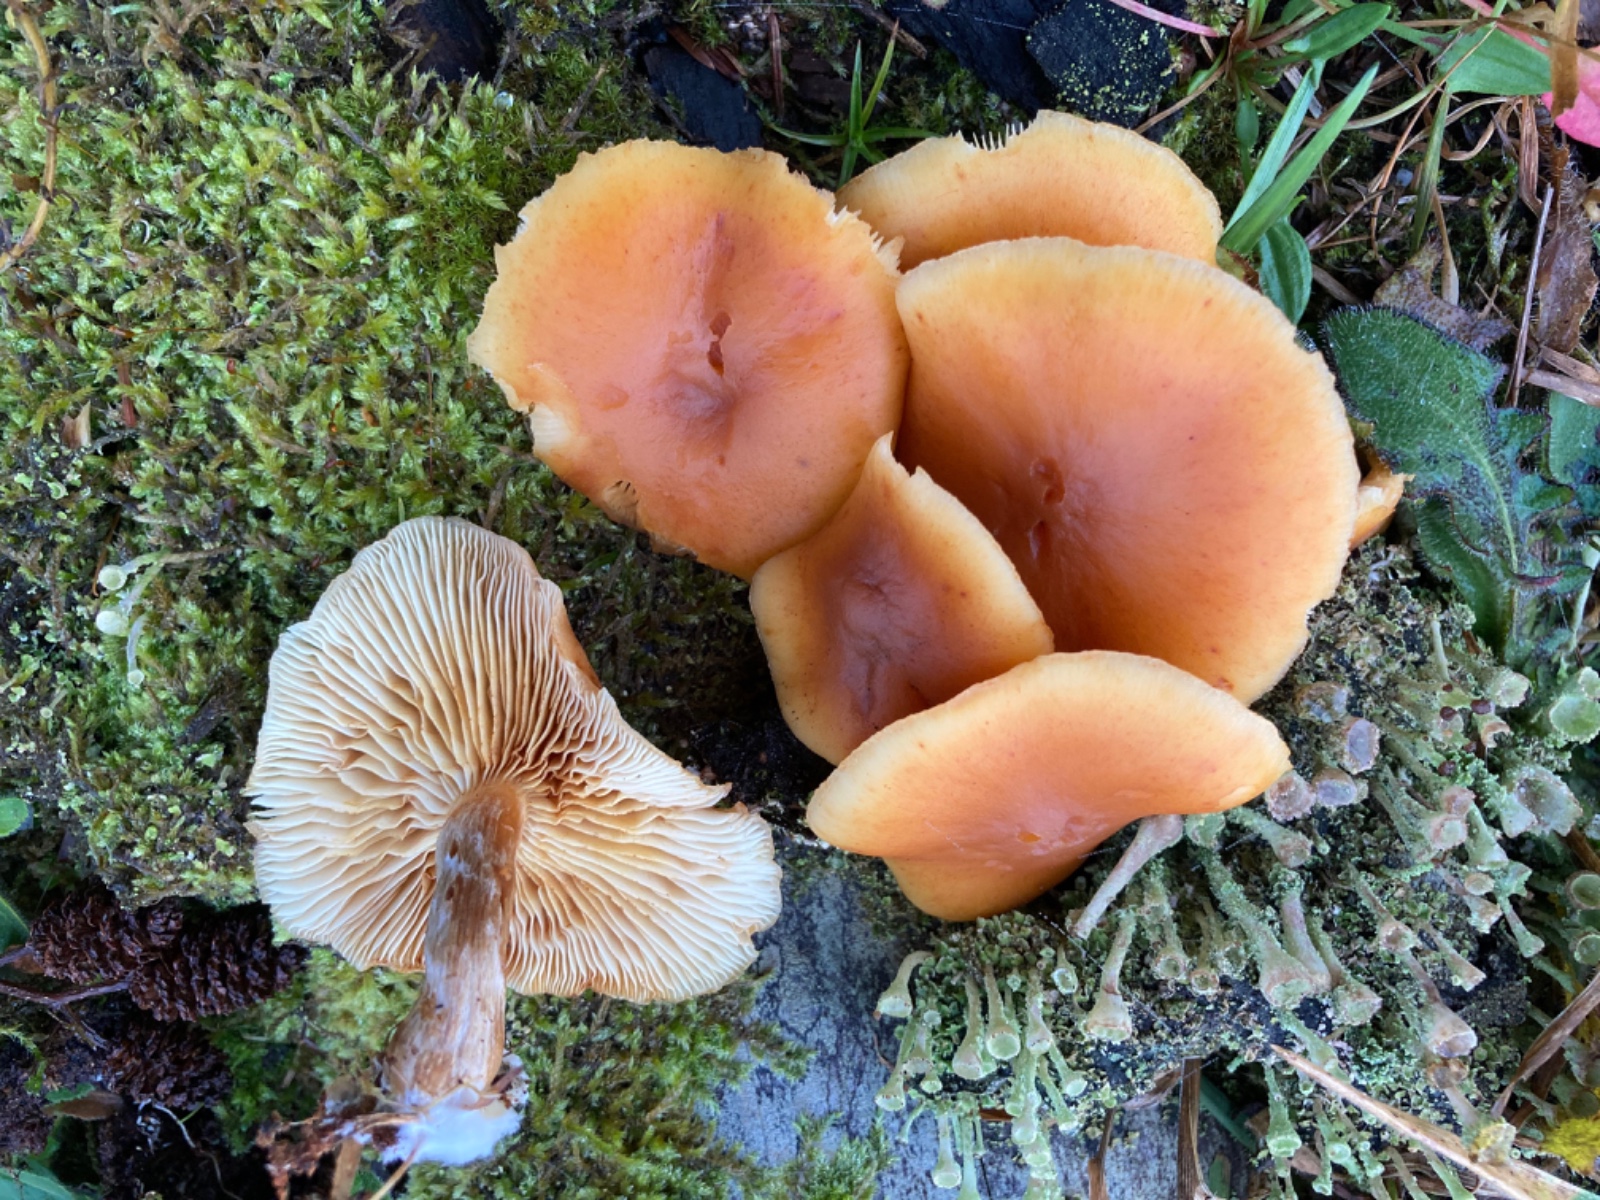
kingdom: Fungi
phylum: Basidiomycota
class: Agaricomycetes
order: Agaricales
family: Hymenogastraceae
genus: Gymnopilus
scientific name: Gymnopilus penetrans
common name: plettet flammehat
